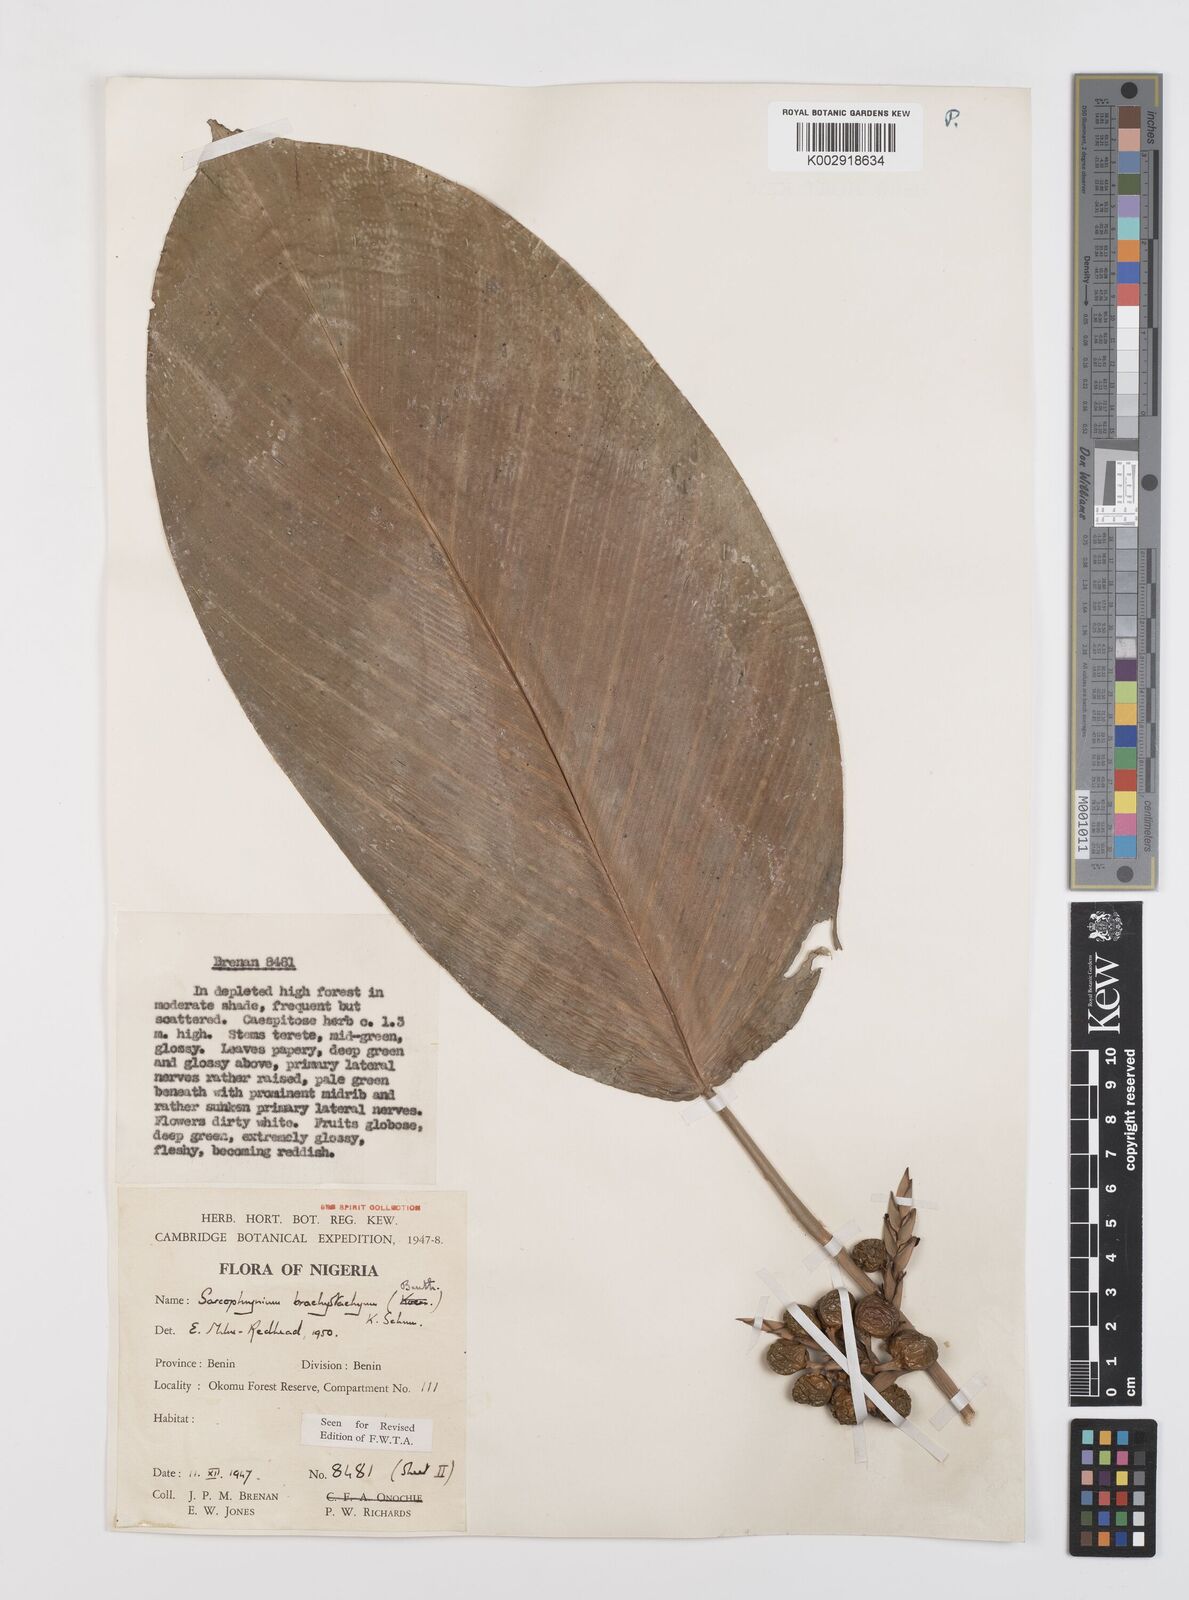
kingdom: Plantae
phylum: Tracheophyta
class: Liliopsida
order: Zingiberales
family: Marantaceae
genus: Sarcophrynium
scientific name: Sarcophrynium brachystachyum
